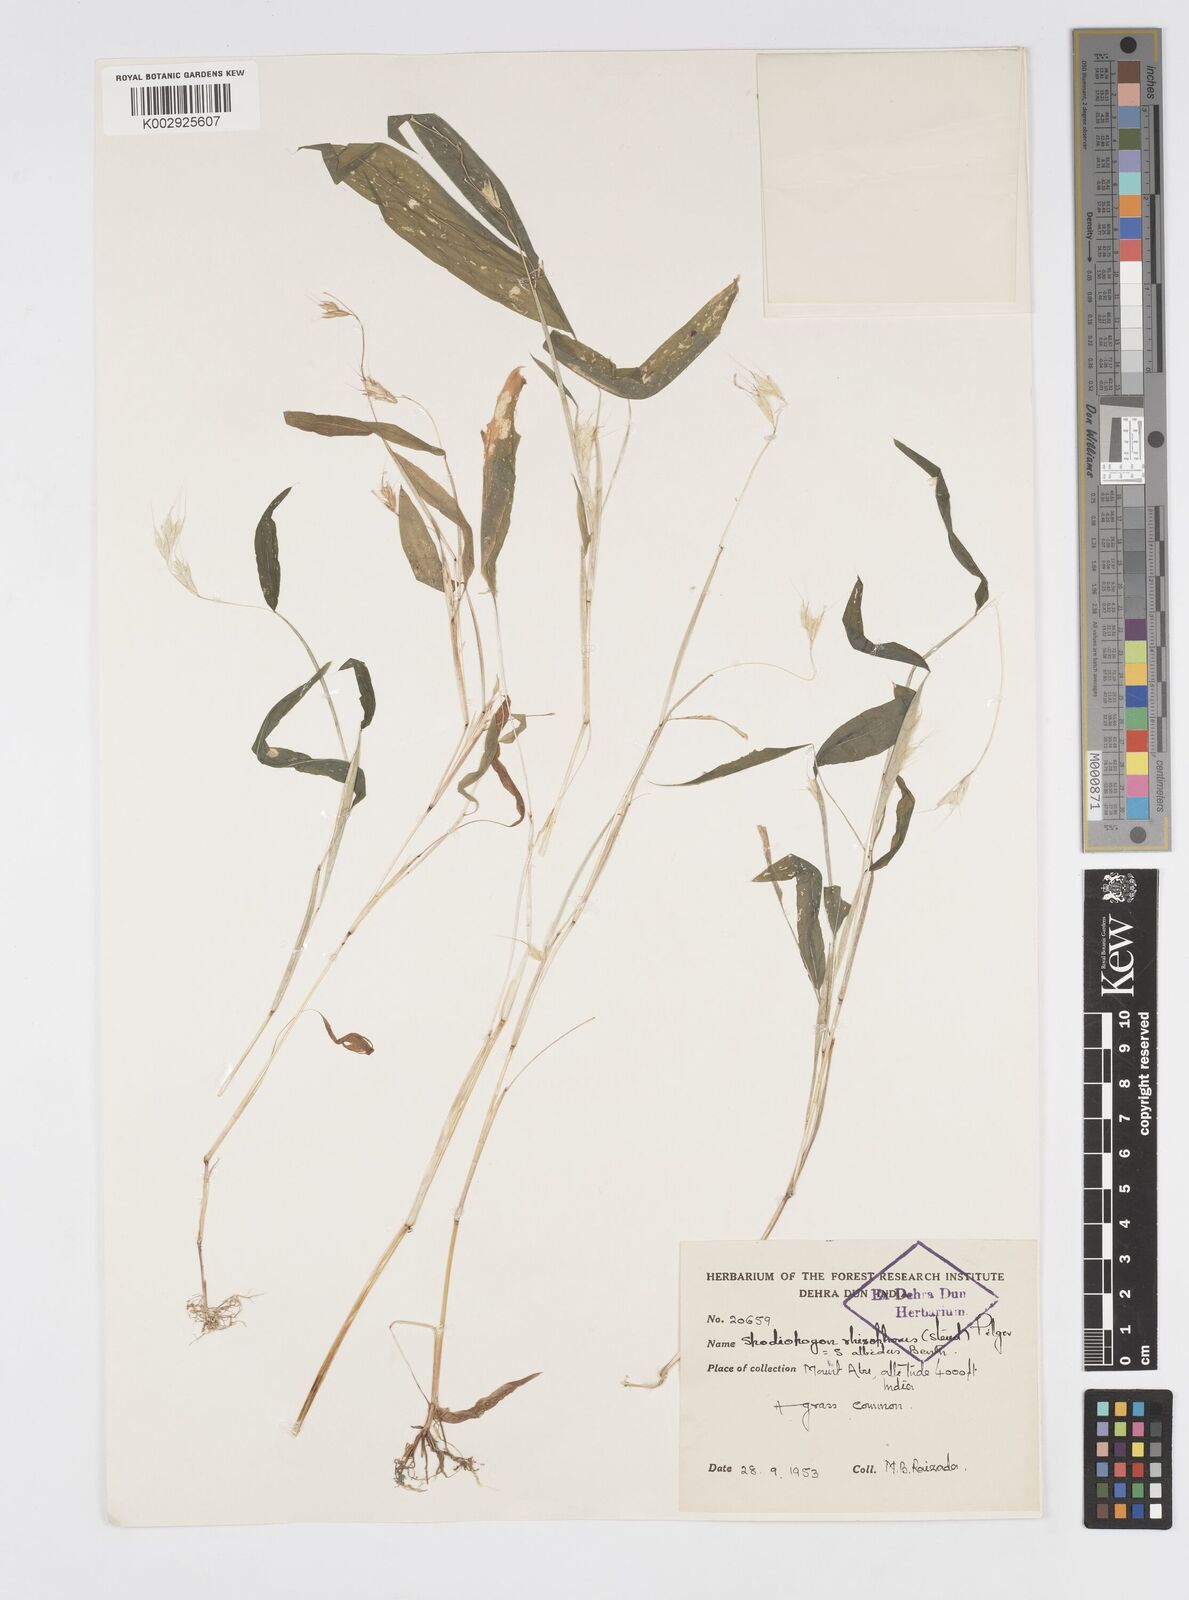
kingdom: Plantae
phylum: Tracheophyta
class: Liliopsida
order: Poales
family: Poaceae
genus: Spodiopogon
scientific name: Spodiopogon rhizophorus
